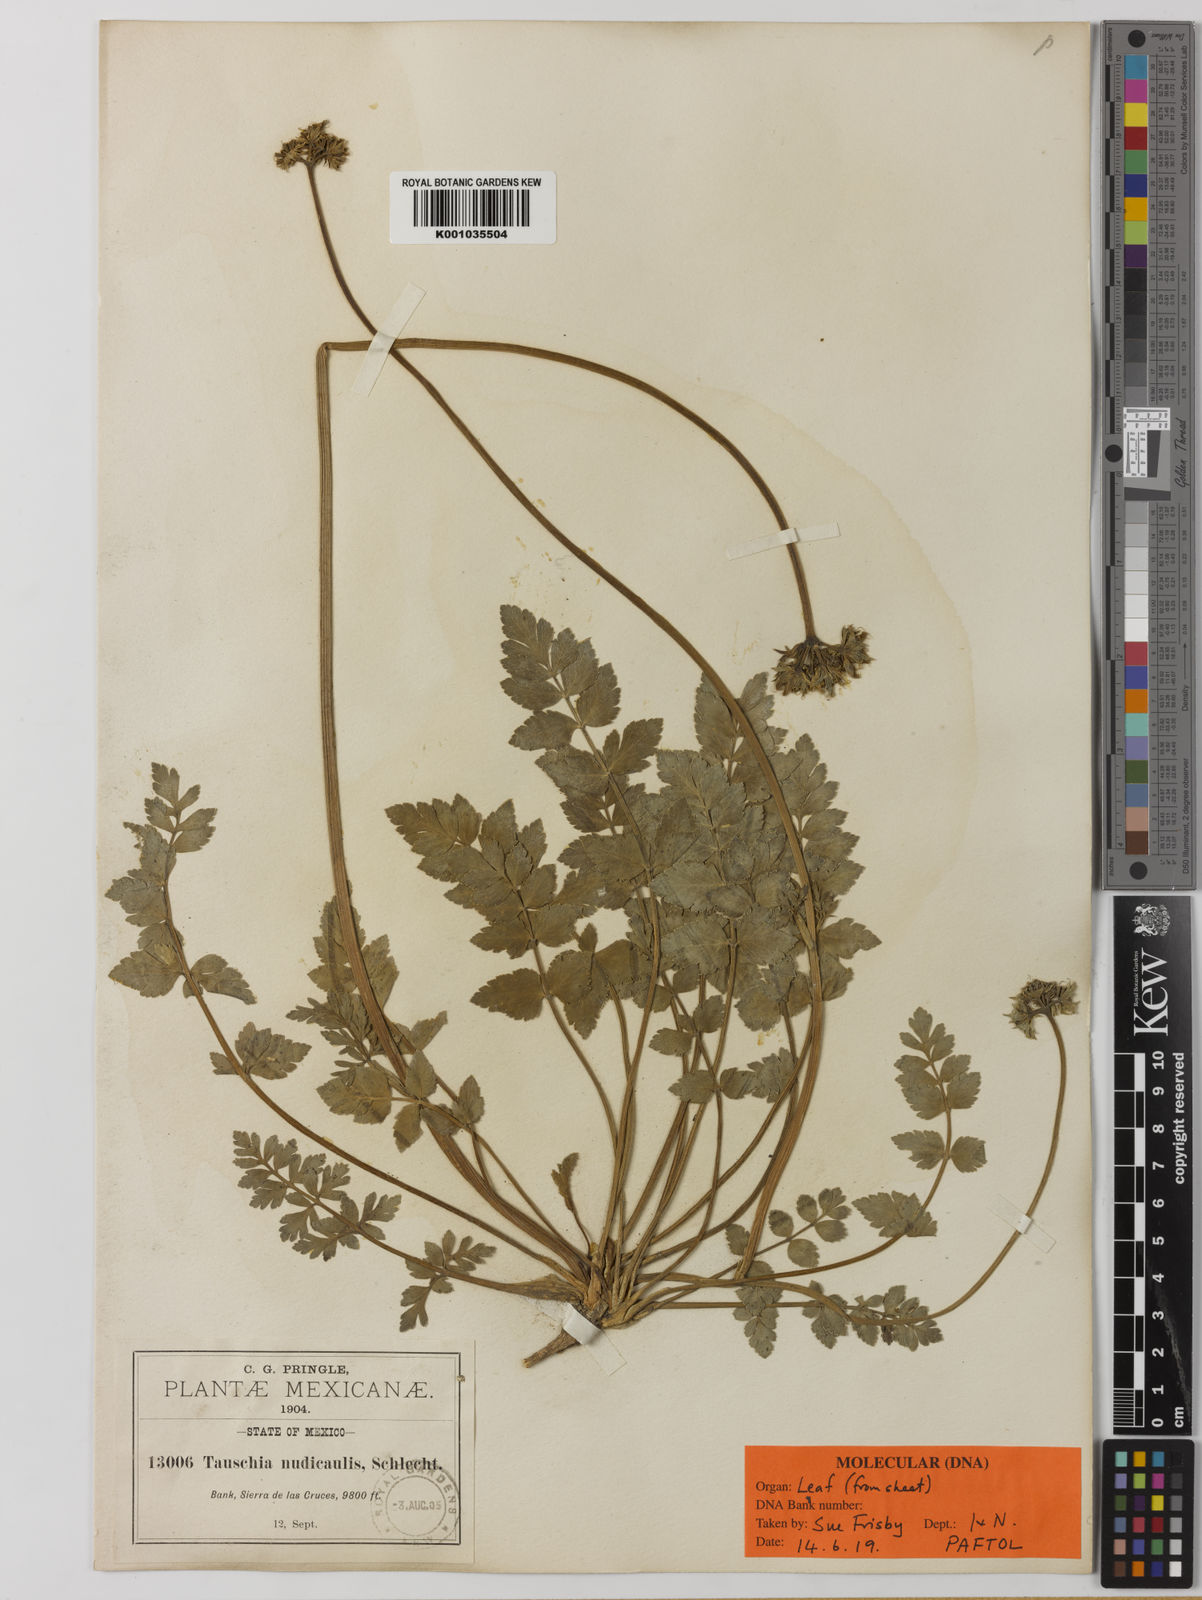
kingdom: Plantae
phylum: Tracheophyta
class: Magnoliopsida
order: Apiales
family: Apiaceae
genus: Tauschia
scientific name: Tauschia nudicaulis
